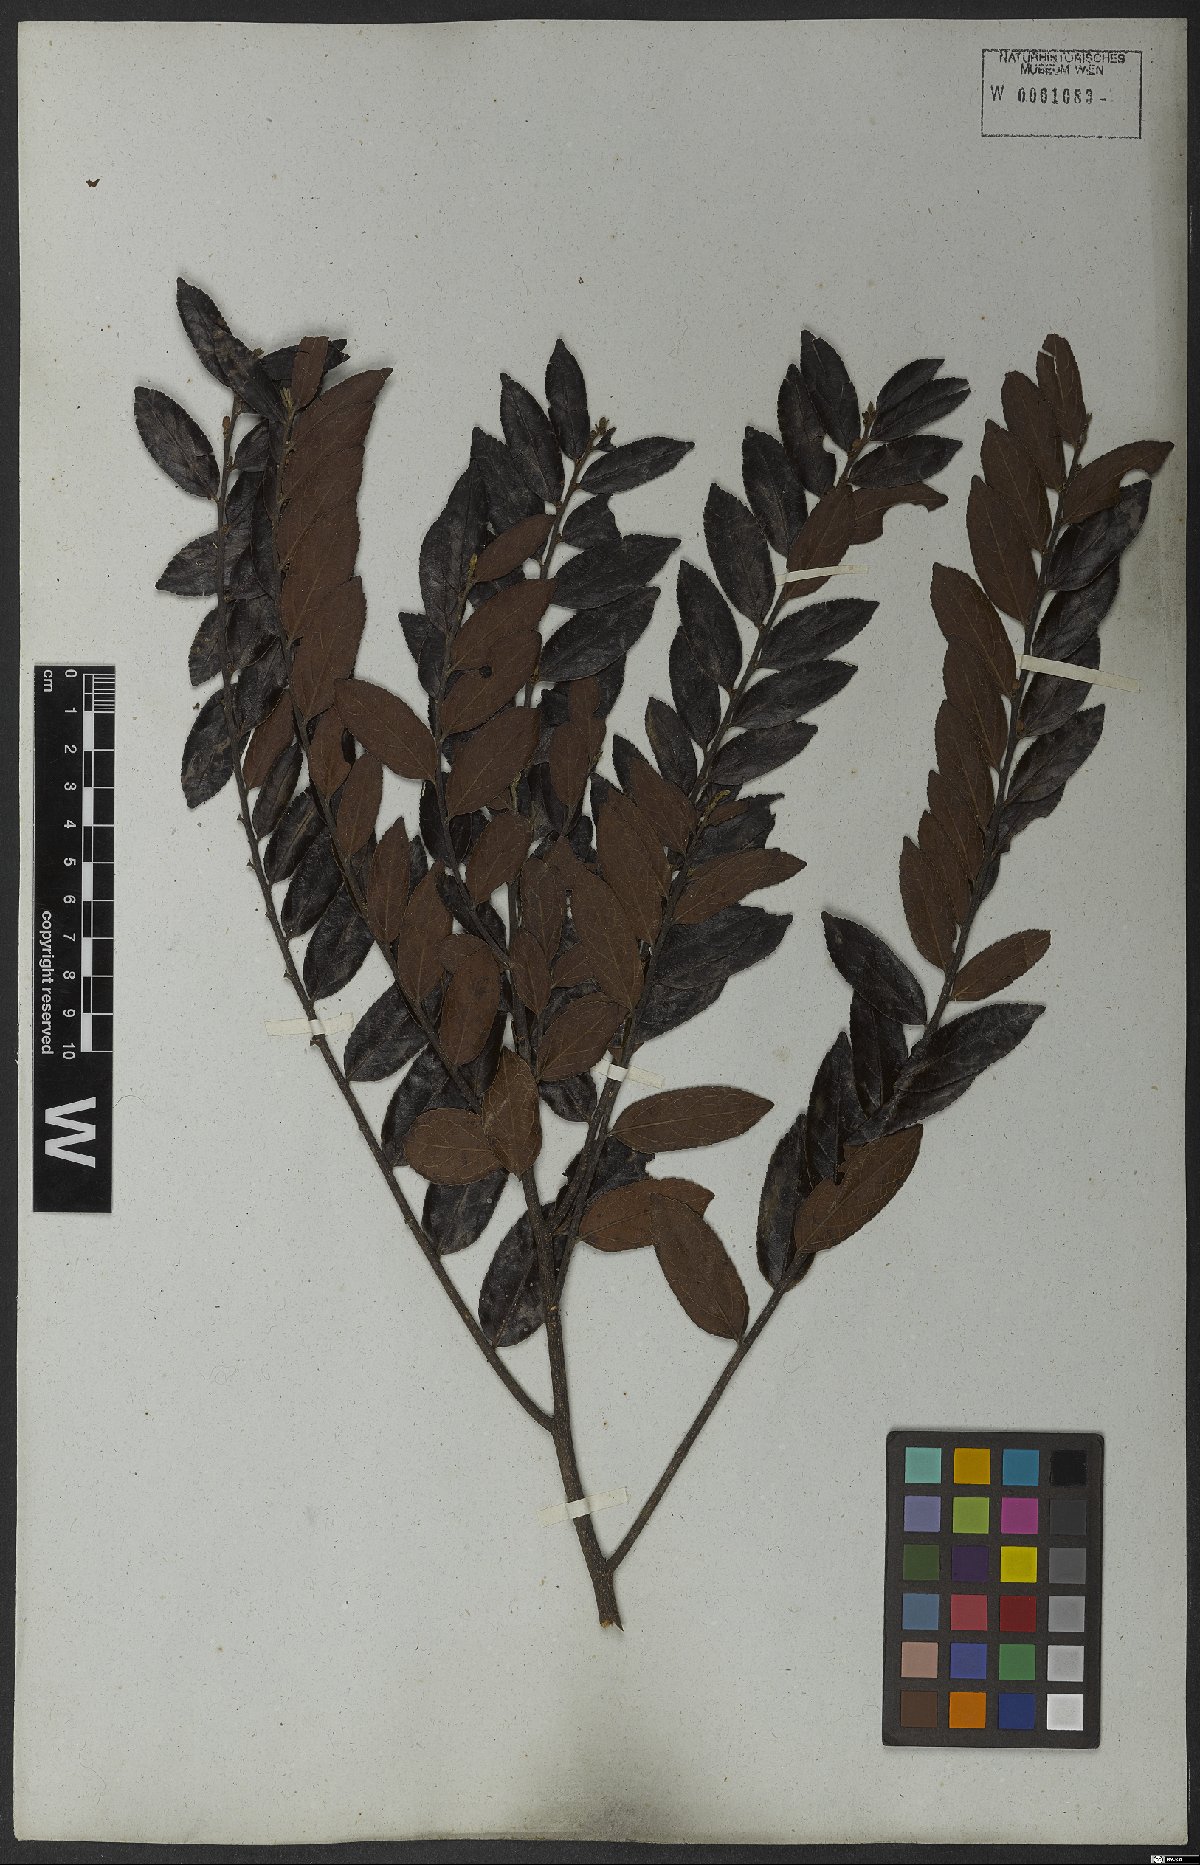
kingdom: Plantae
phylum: Tracheophyta
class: Magnoliopsida
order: Malpighiales
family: Salicaceae
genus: Casearia
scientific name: Casearia rufescens
